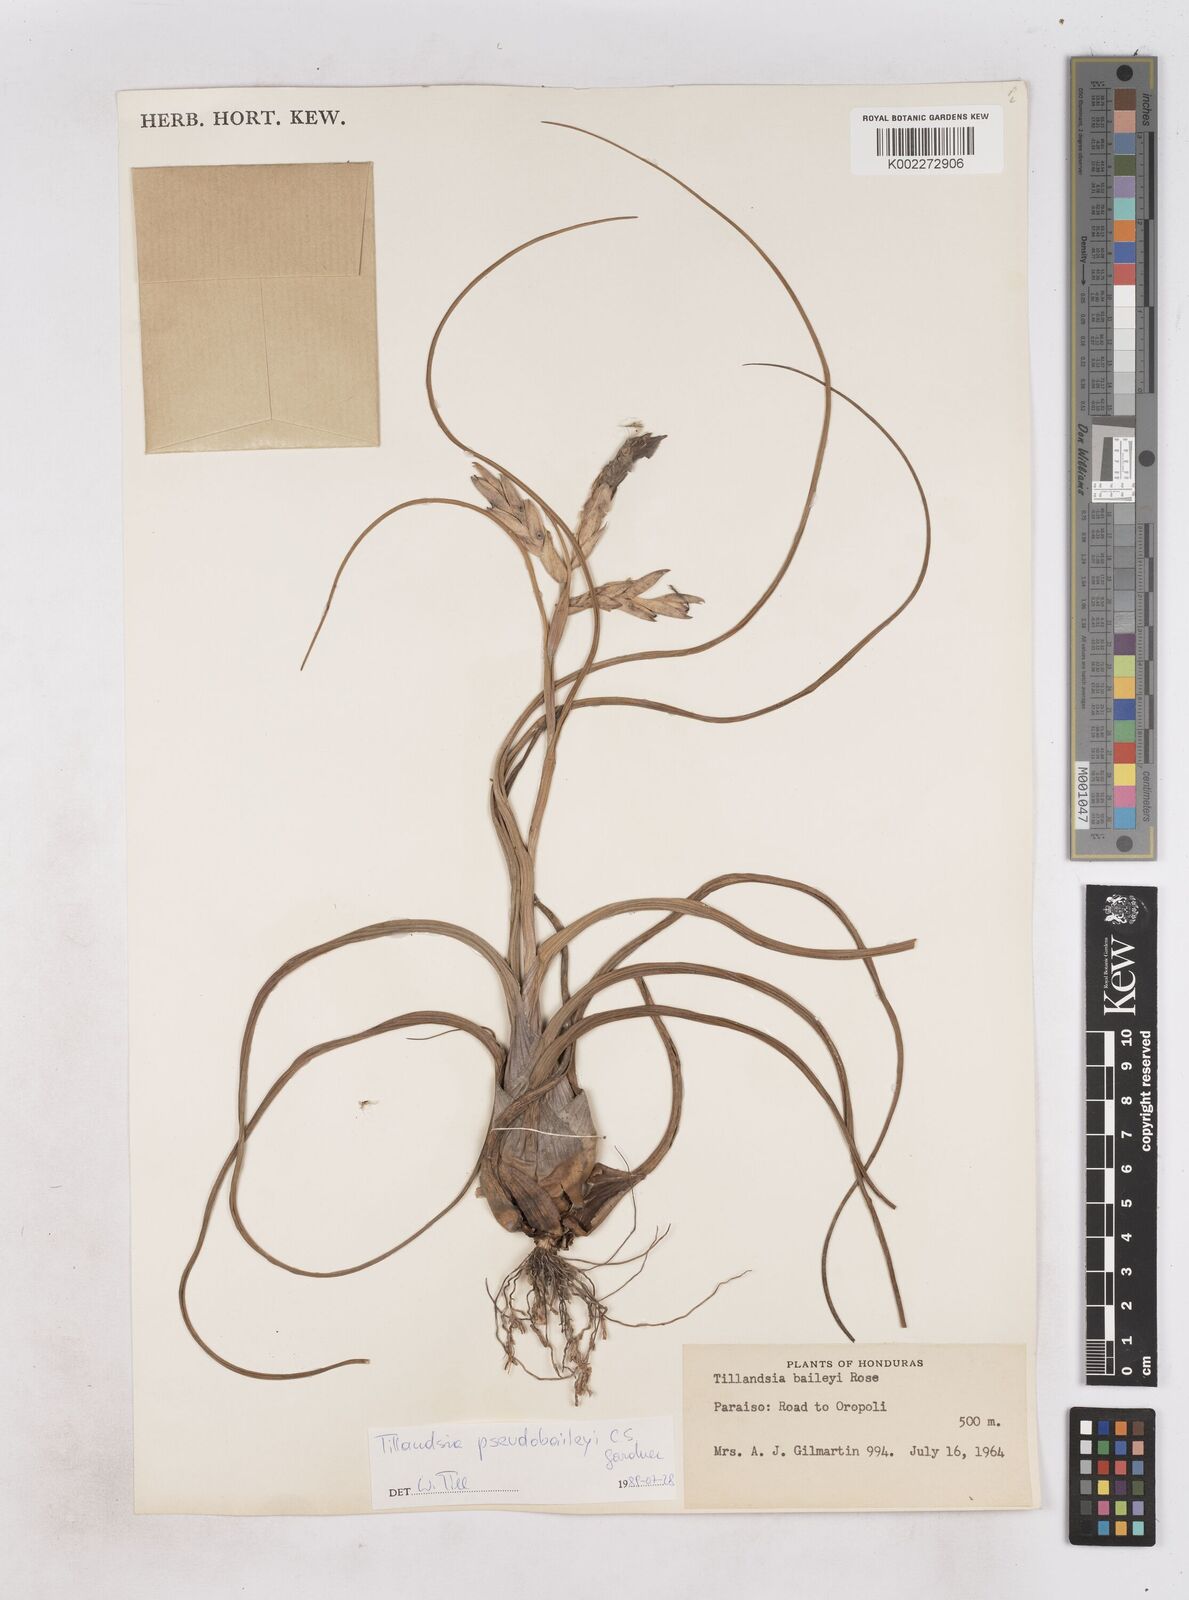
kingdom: Plantae
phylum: Tracheophyta
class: Liliopsida
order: Poales
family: Bromeliaceae
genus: Tillandsia
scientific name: Tillandsia pseudobaileyi
